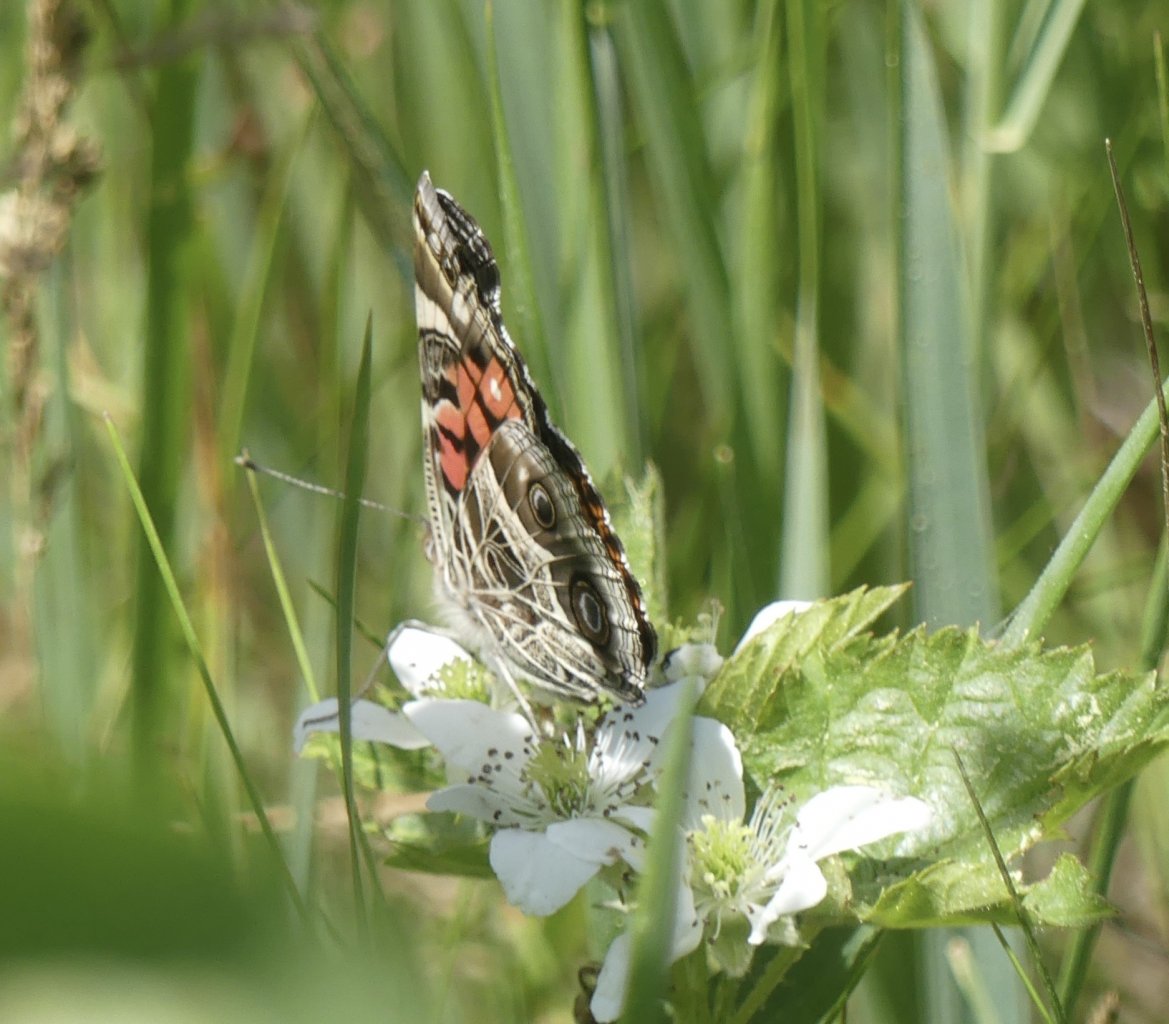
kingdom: Animalia
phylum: Arthropoda
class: Insecta
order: Lepidoptera
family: Nymphalidae
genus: Vanessa
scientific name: Vanessa virginiensis
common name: American Lady
